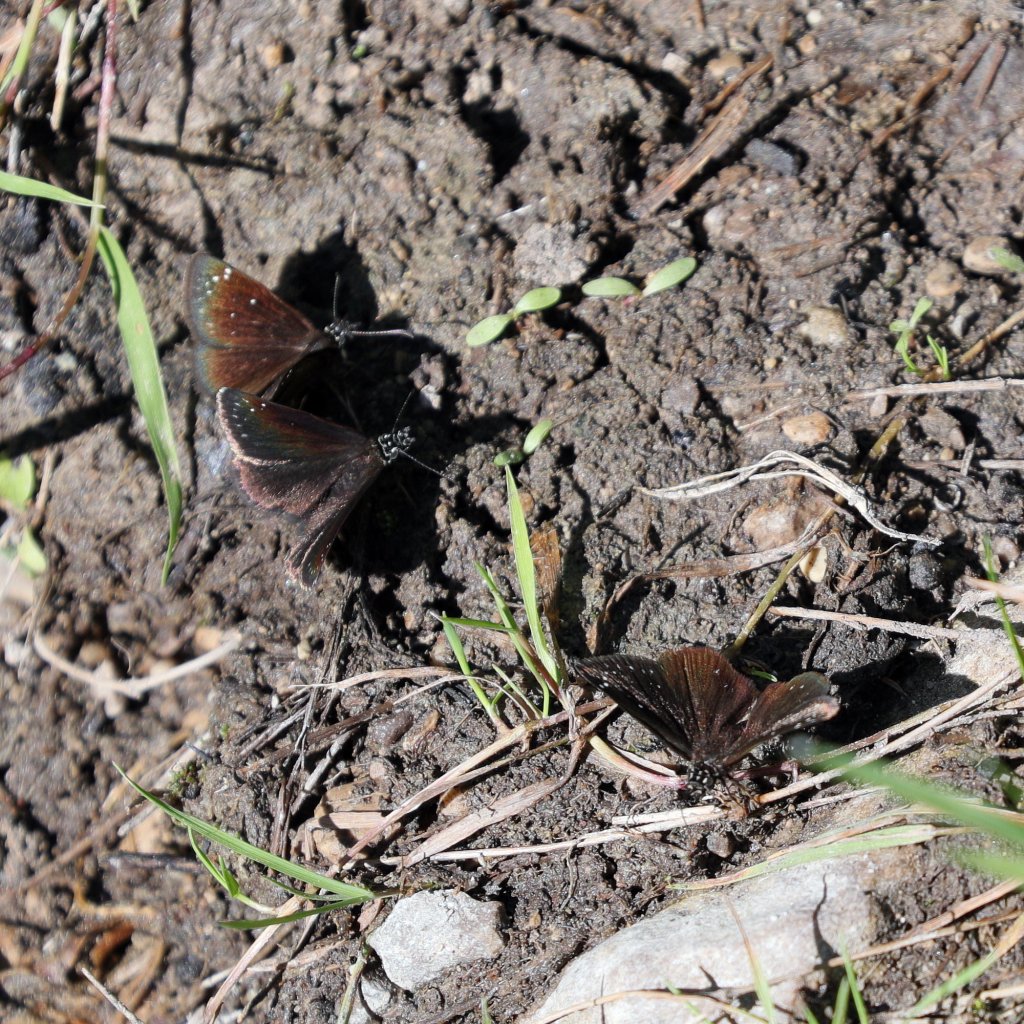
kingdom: Animalia
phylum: Arthropoda
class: Insecta
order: Lepidoptera
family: Hesperiidae
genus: Pholisora
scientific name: Pholisora catullus
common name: Common Sootywing
